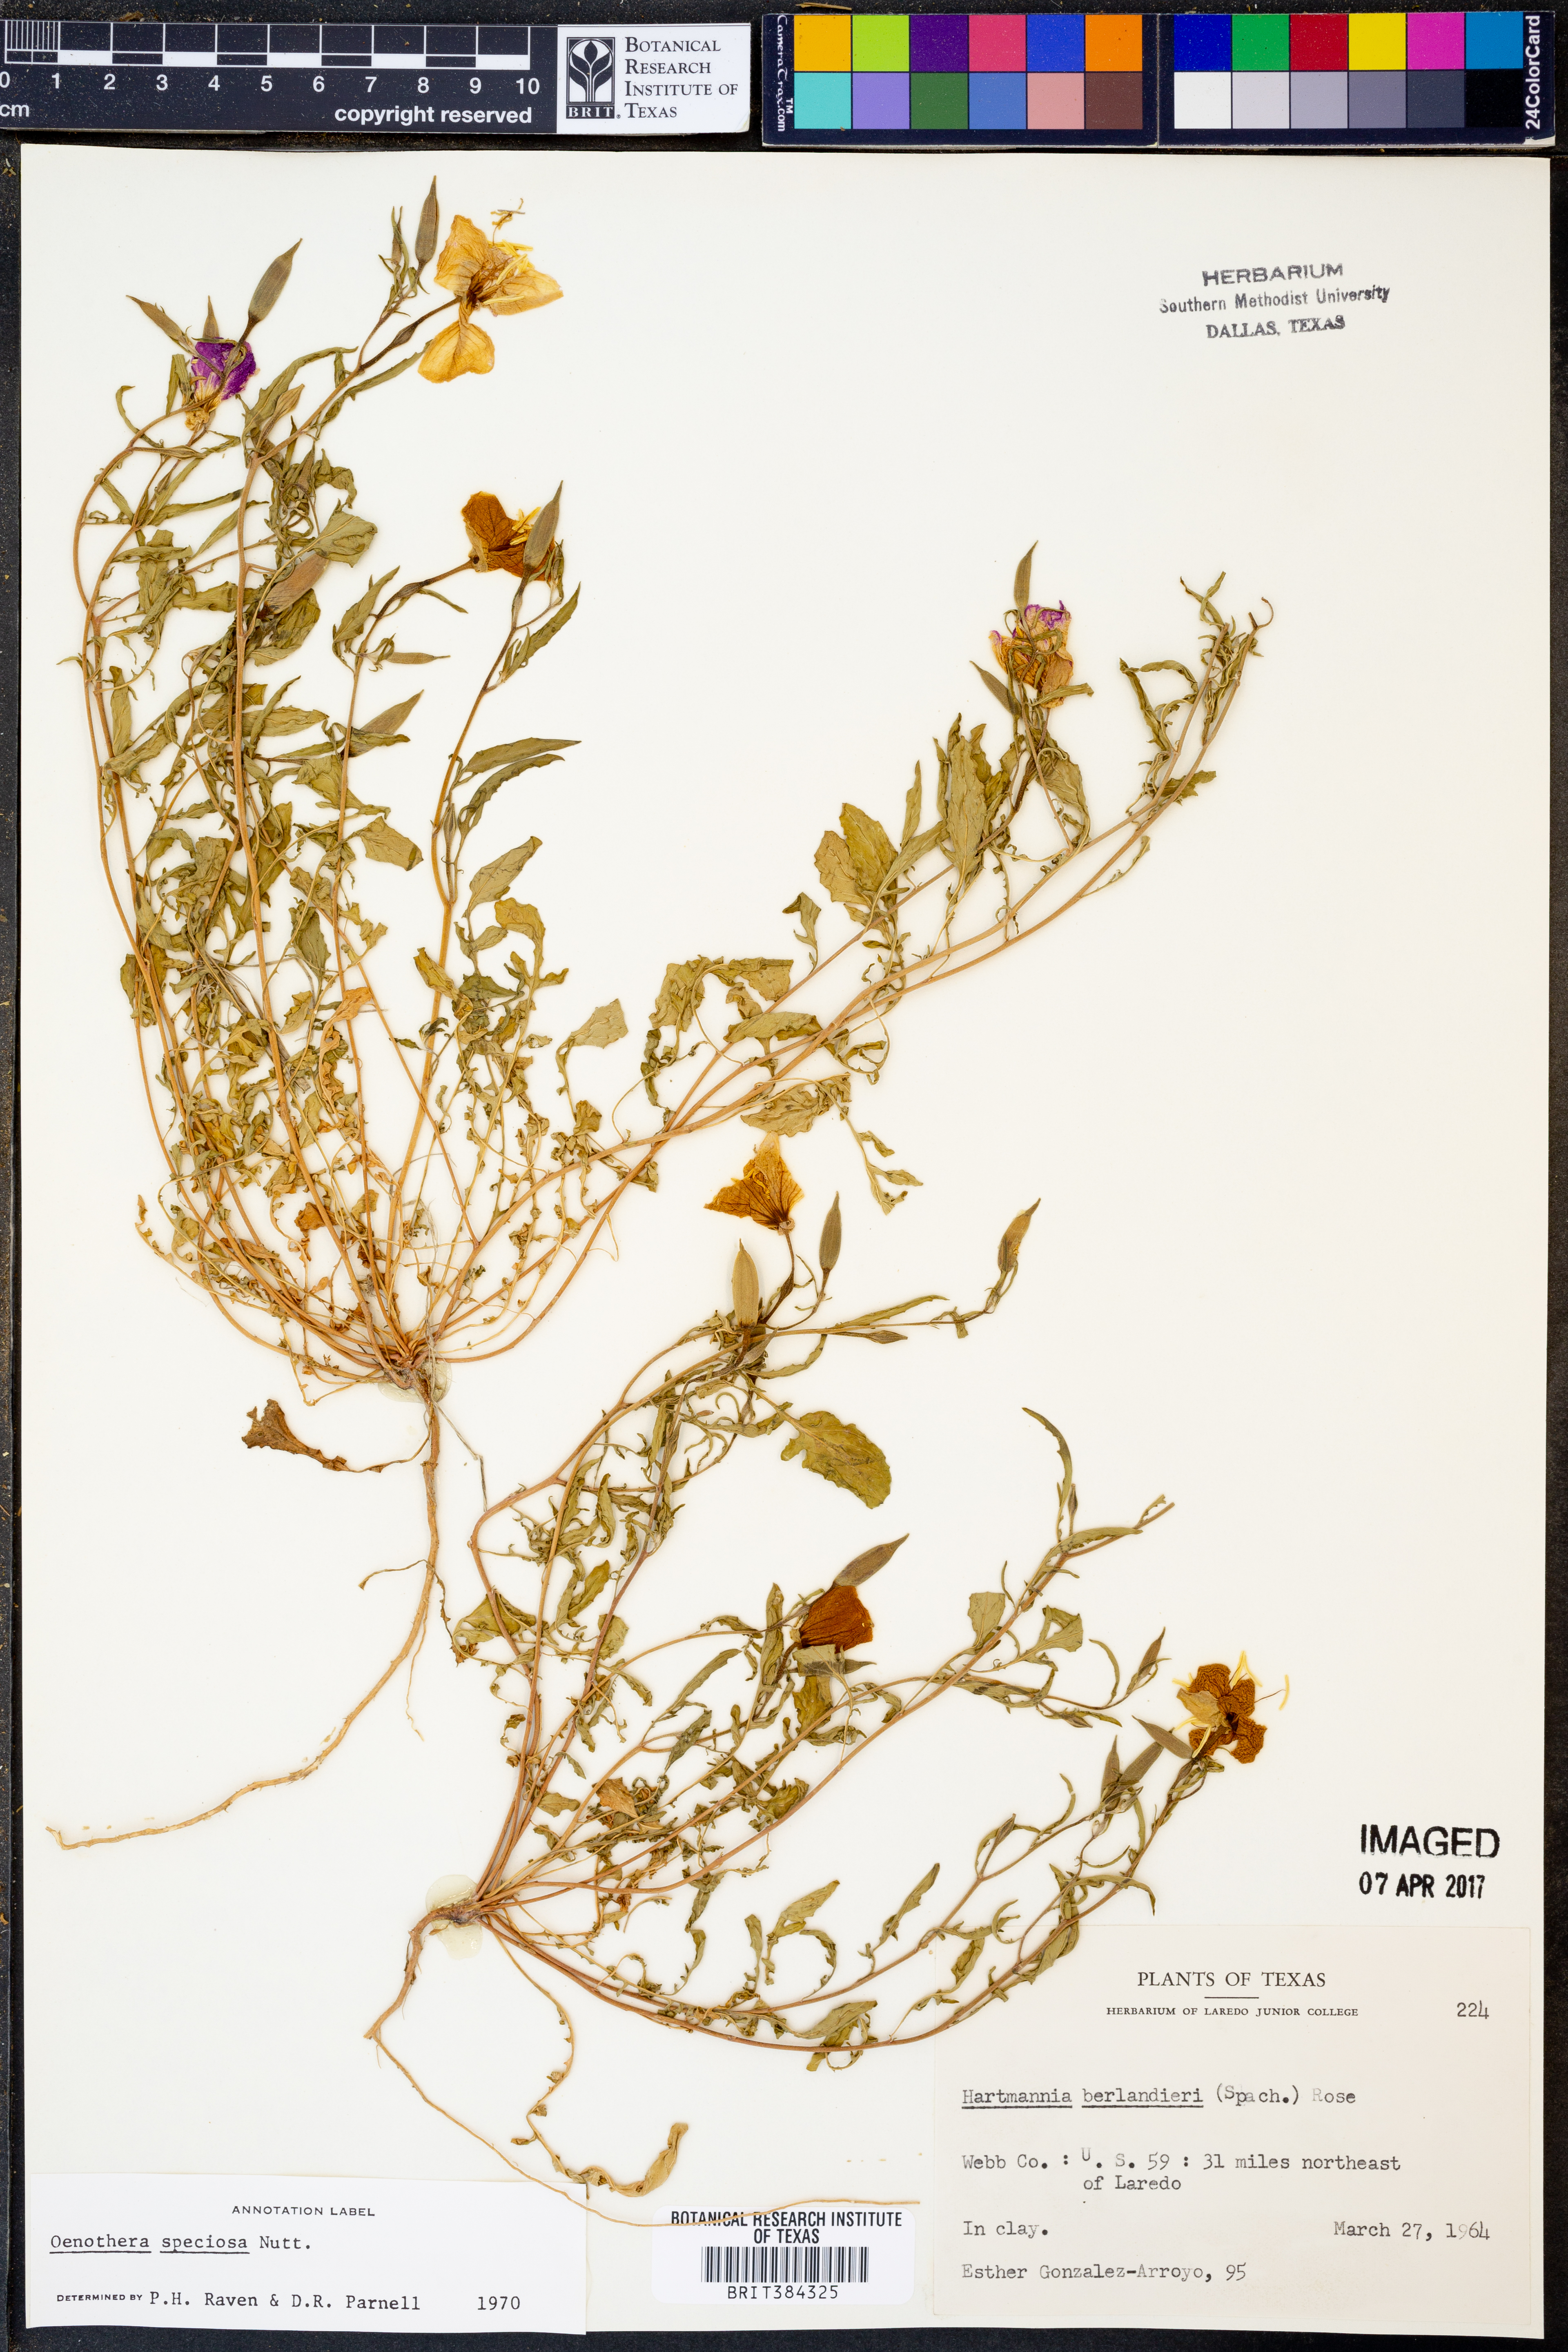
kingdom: Plantae
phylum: Tracheophyta
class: Magnoliopsida
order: Myrtales
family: Onagraceae
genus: Oenothera
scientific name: Oenothera speciosa
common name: White evening-primrose
